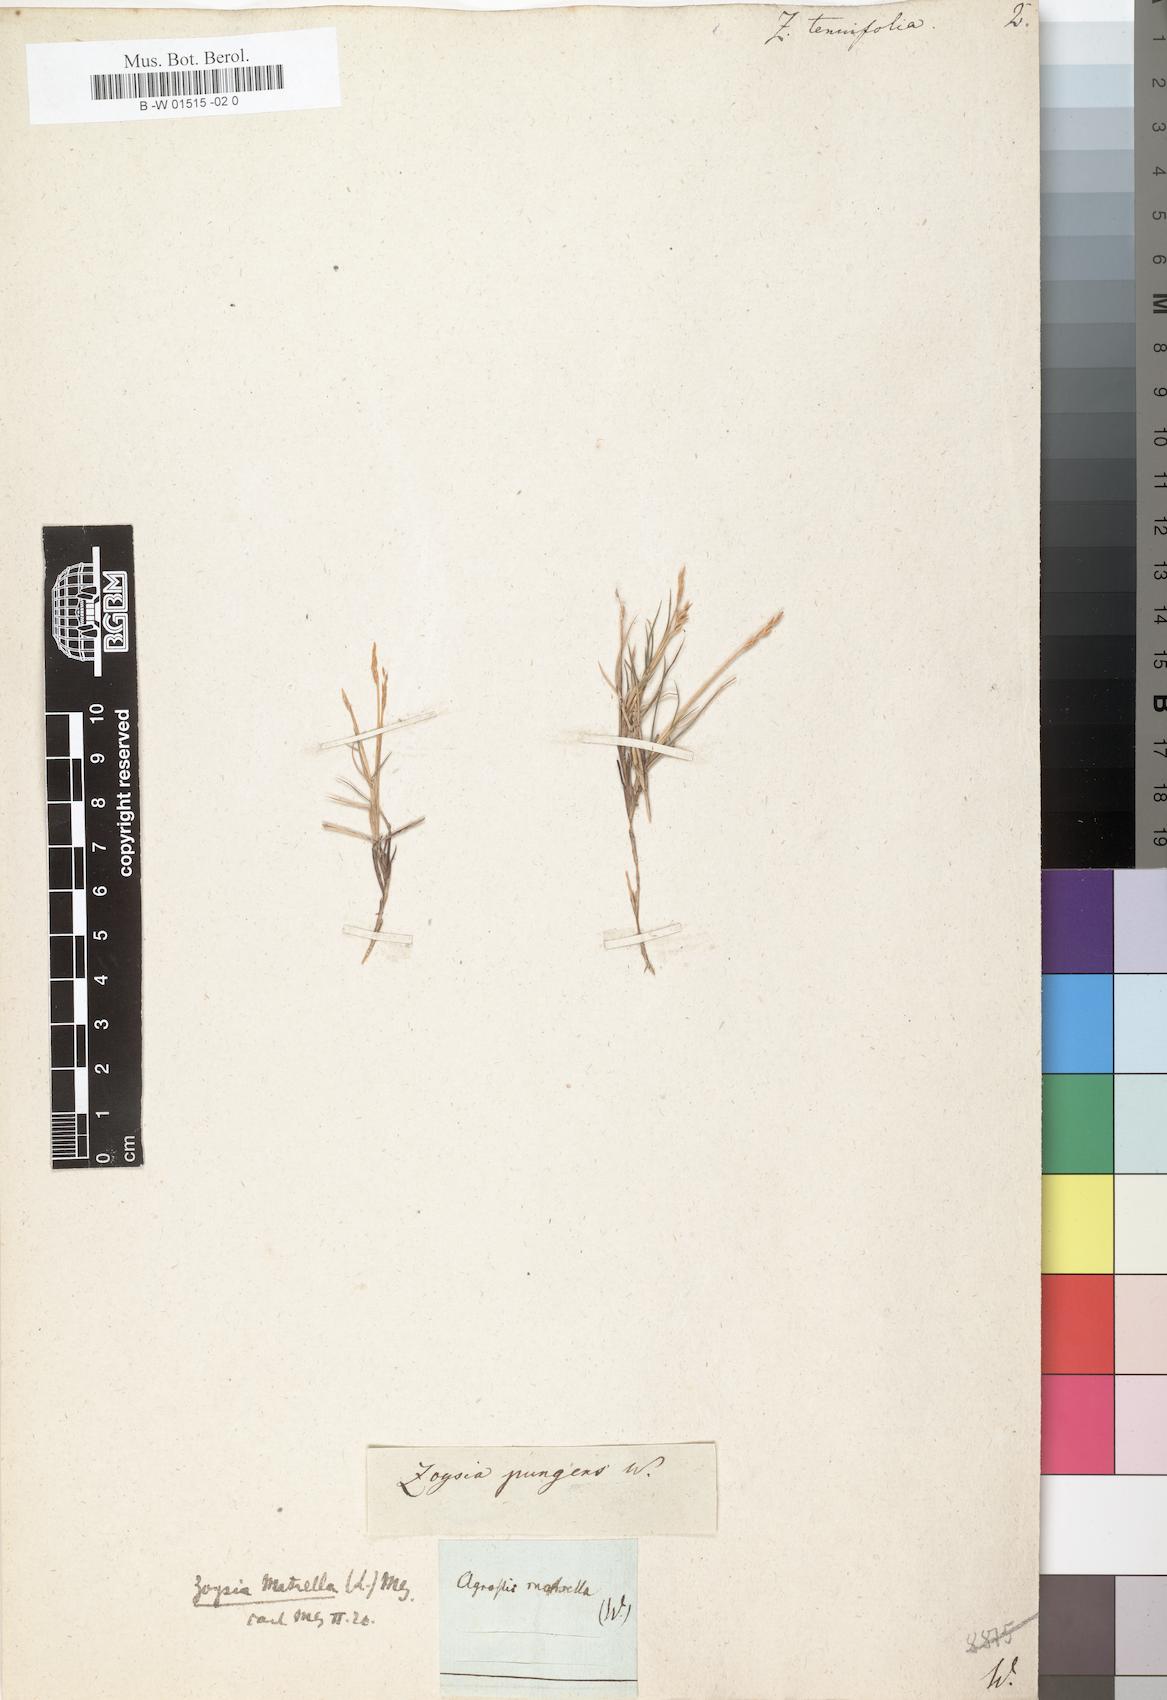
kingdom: Plantae
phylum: Tracheophyta
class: Liliopsida
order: Poales
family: Poaceae
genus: Zoysia
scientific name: Zoysia matrella
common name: Manila grass
